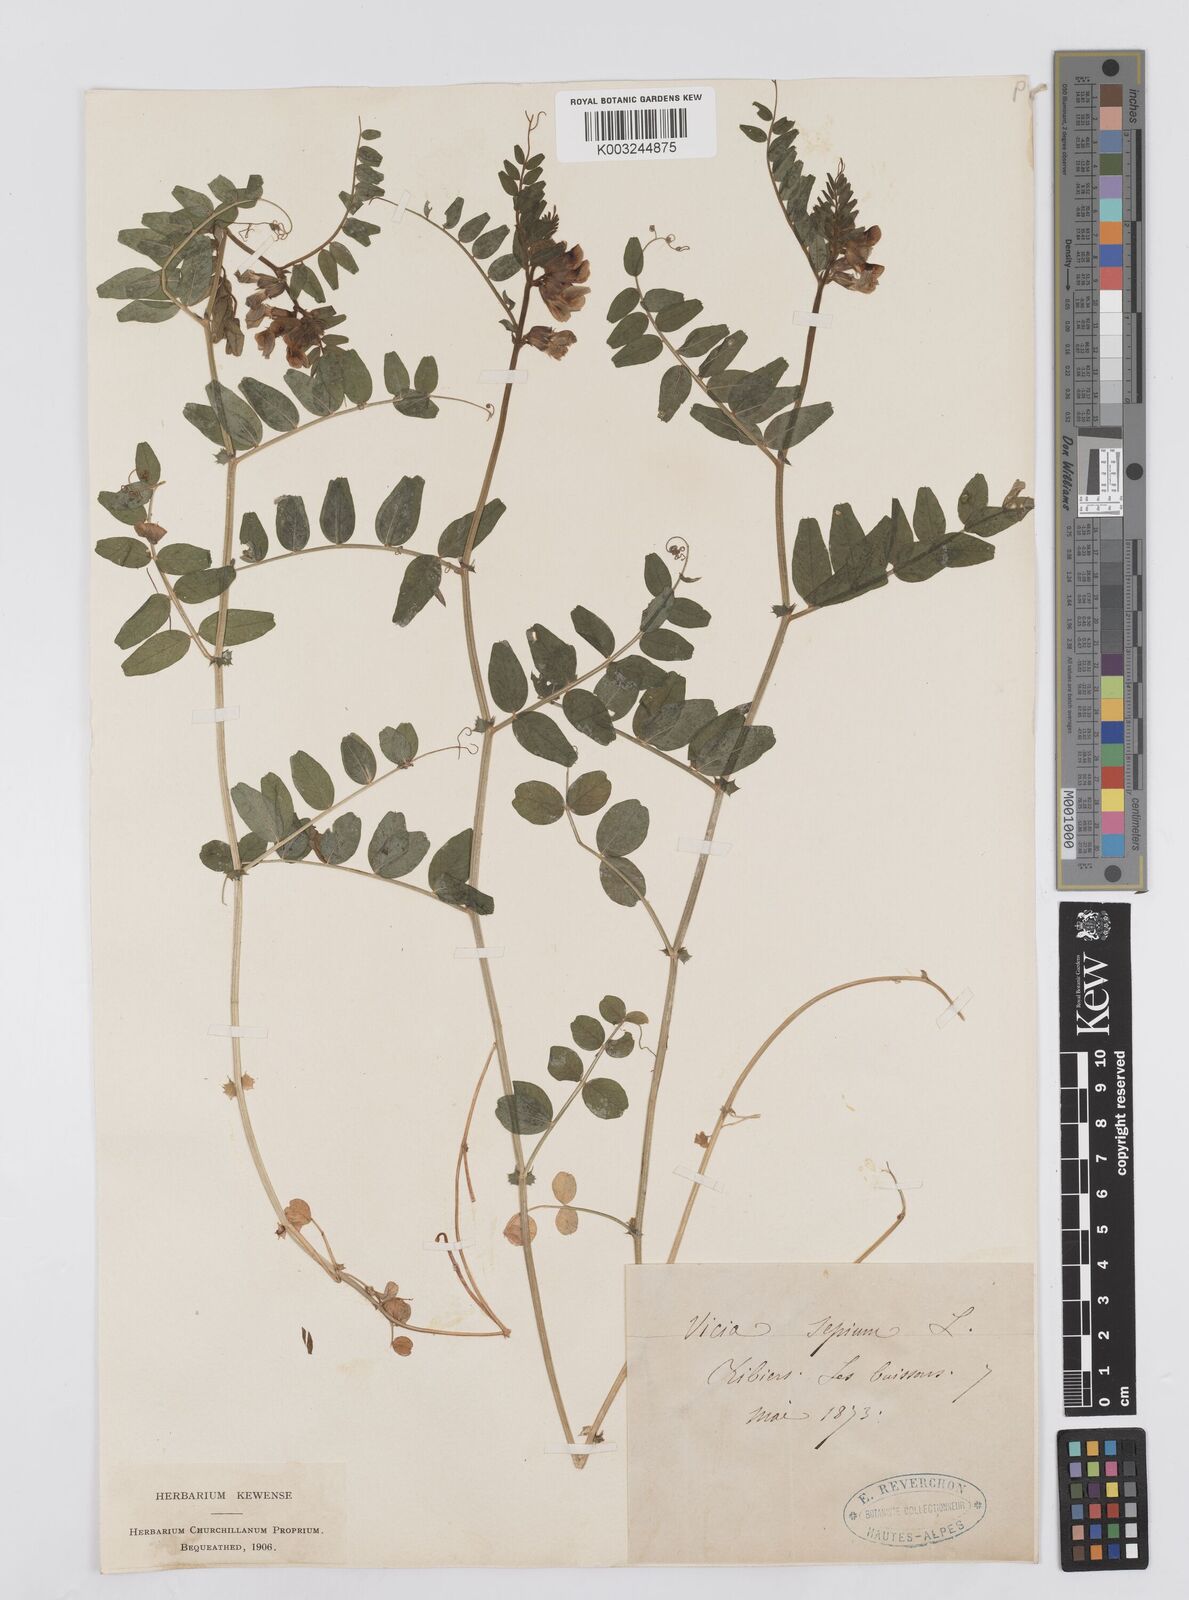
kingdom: Plantae
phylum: Tracheophyta
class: Magnoliopsida
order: Fabales
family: Fabaceae
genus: Vicia
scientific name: Vicia sepium
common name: Bush vetch
